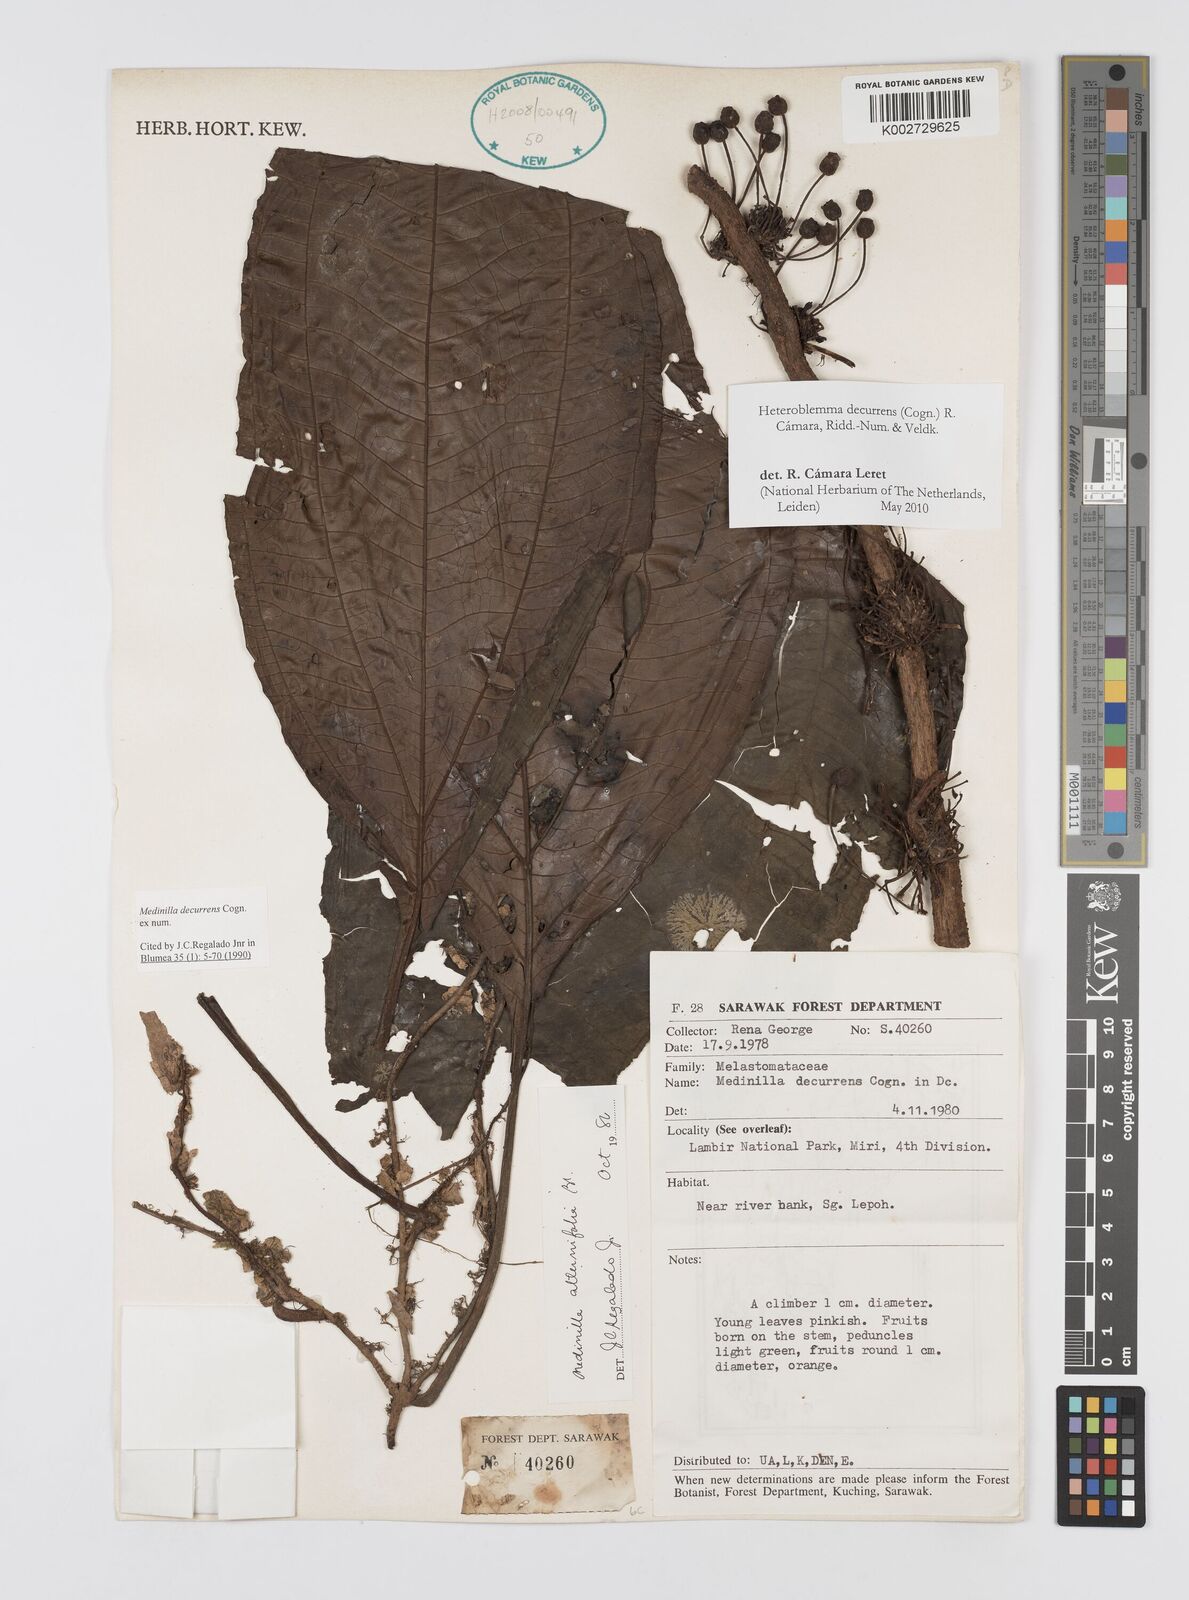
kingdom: Plantae
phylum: Tracheophyta
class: Magnoliopsida
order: Myrtales
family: Melastomataceae
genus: Heteroblemma
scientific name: Heteroblemma decurrens
